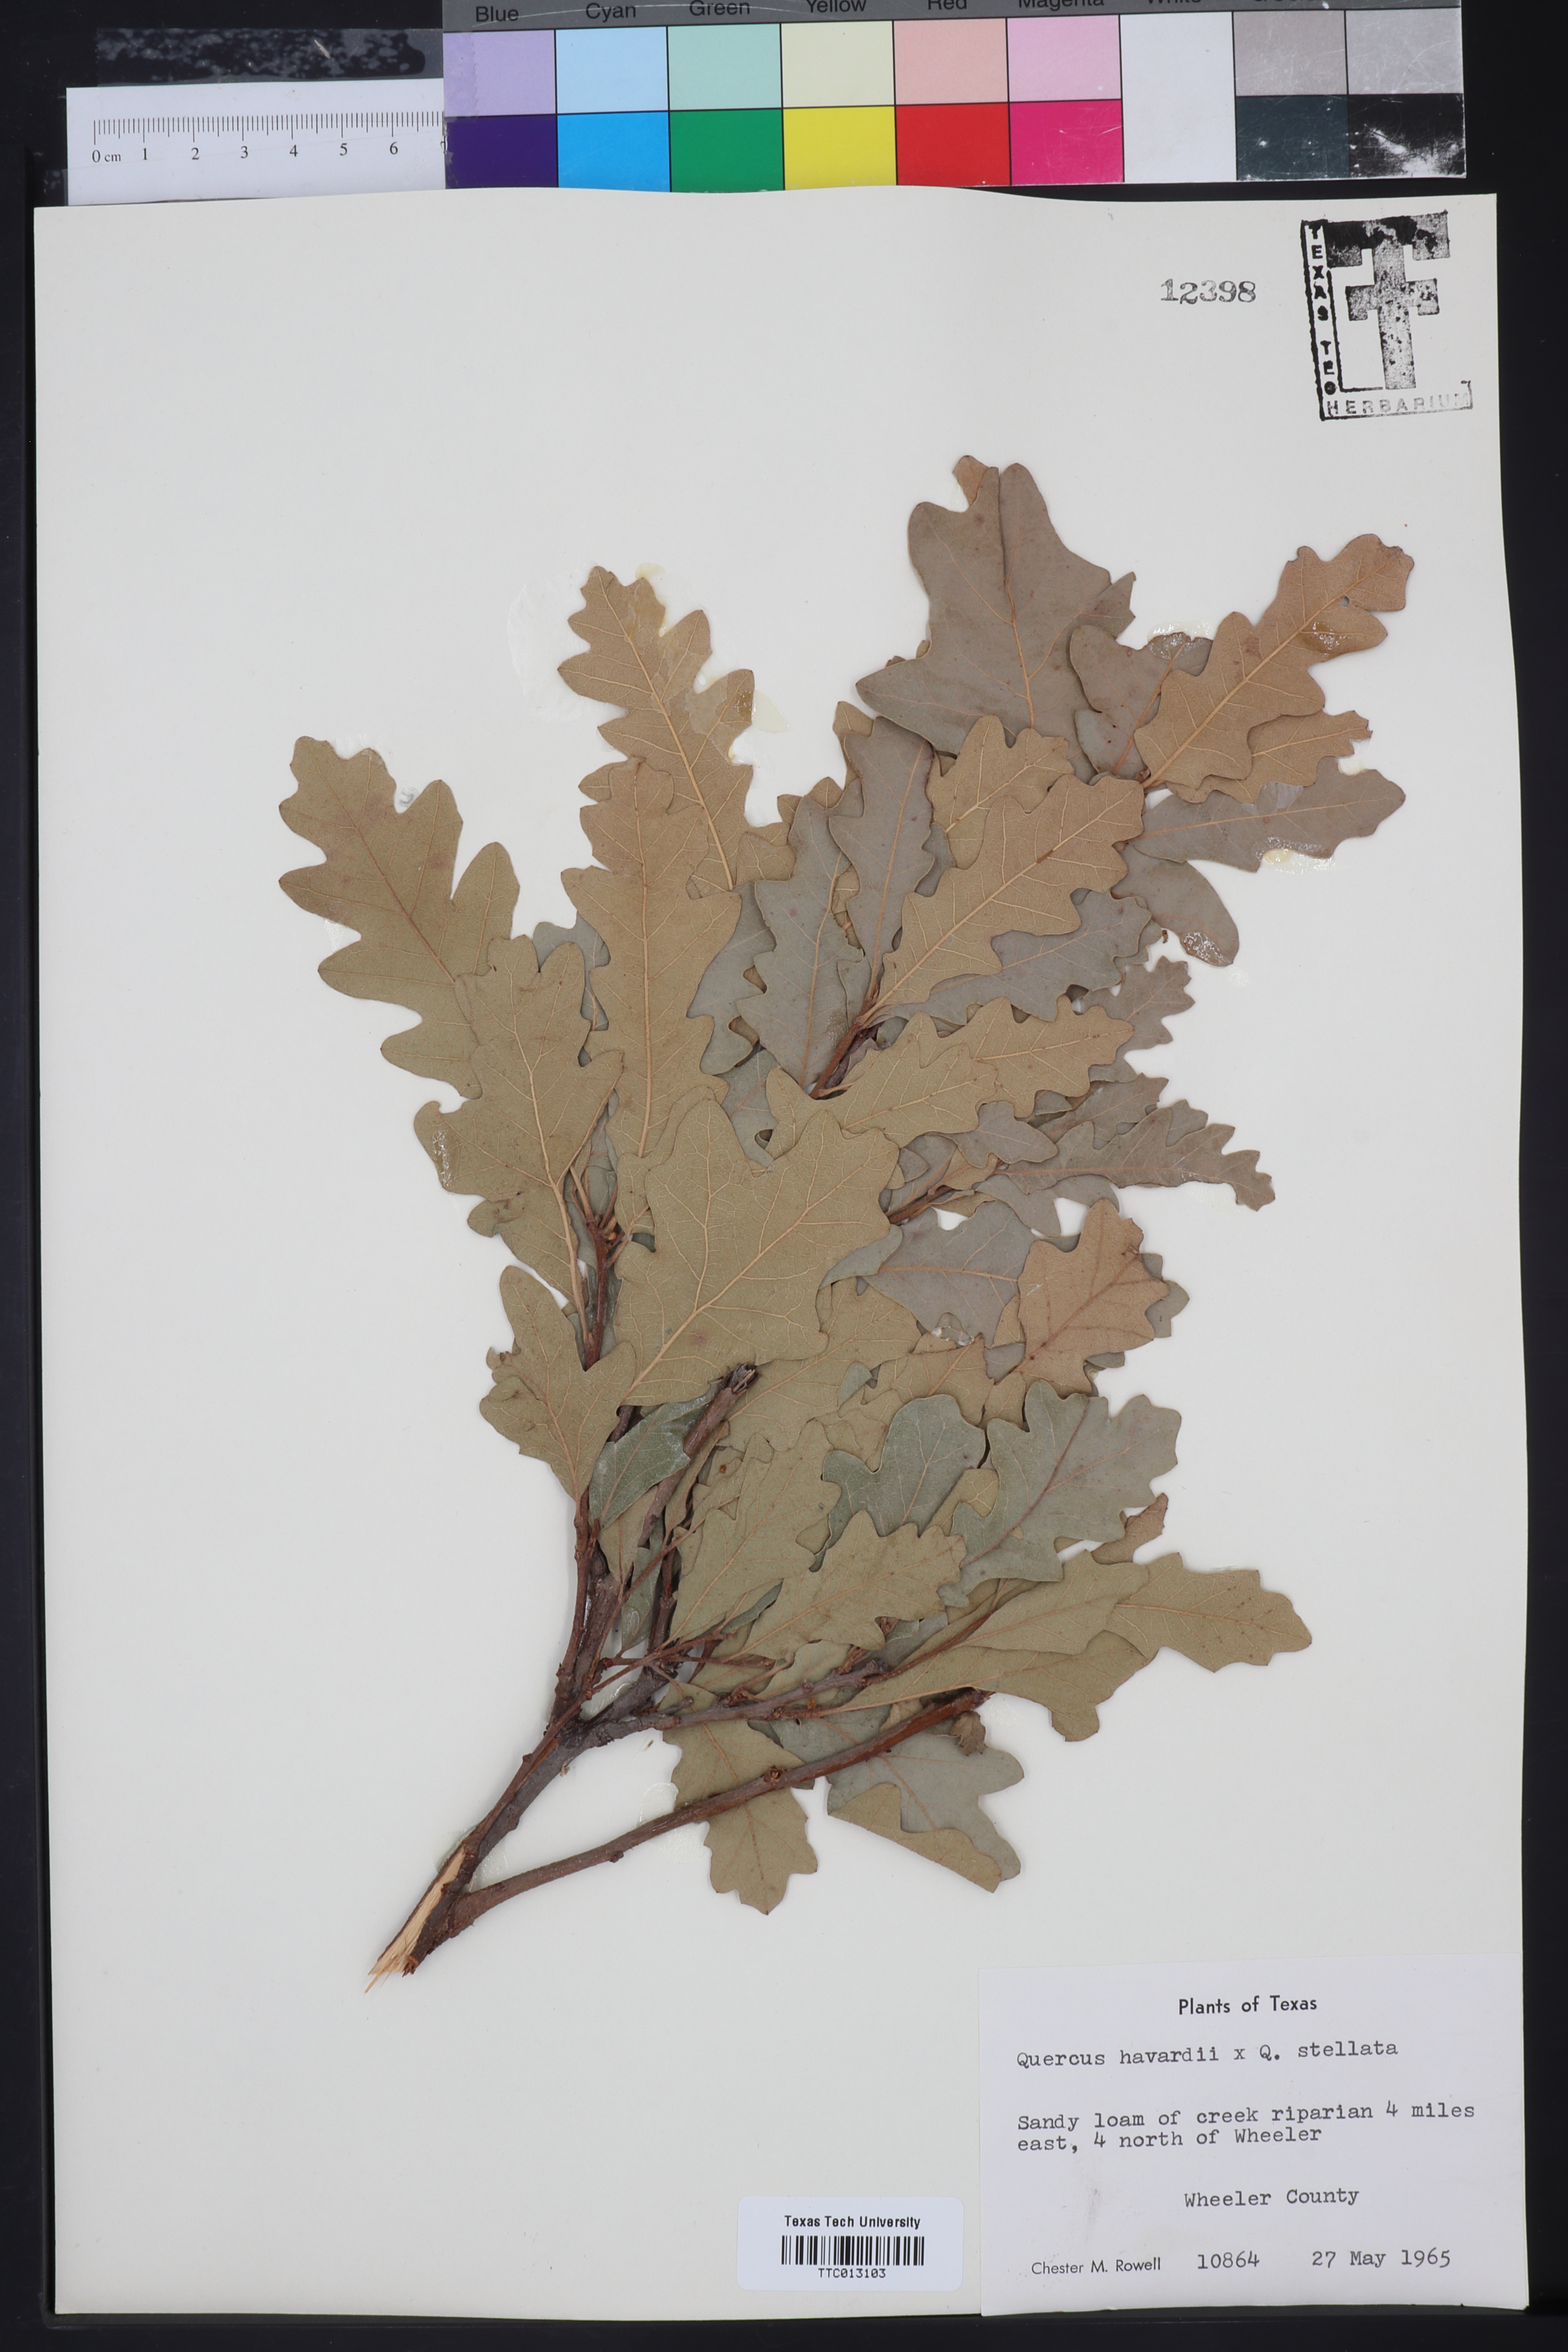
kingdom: Plantae
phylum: Tracheophyta
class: Magnoliopsida
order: Fagales
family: Fagaceae
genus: Quercus
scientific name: Quercus havardii
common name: Shinnery oak
